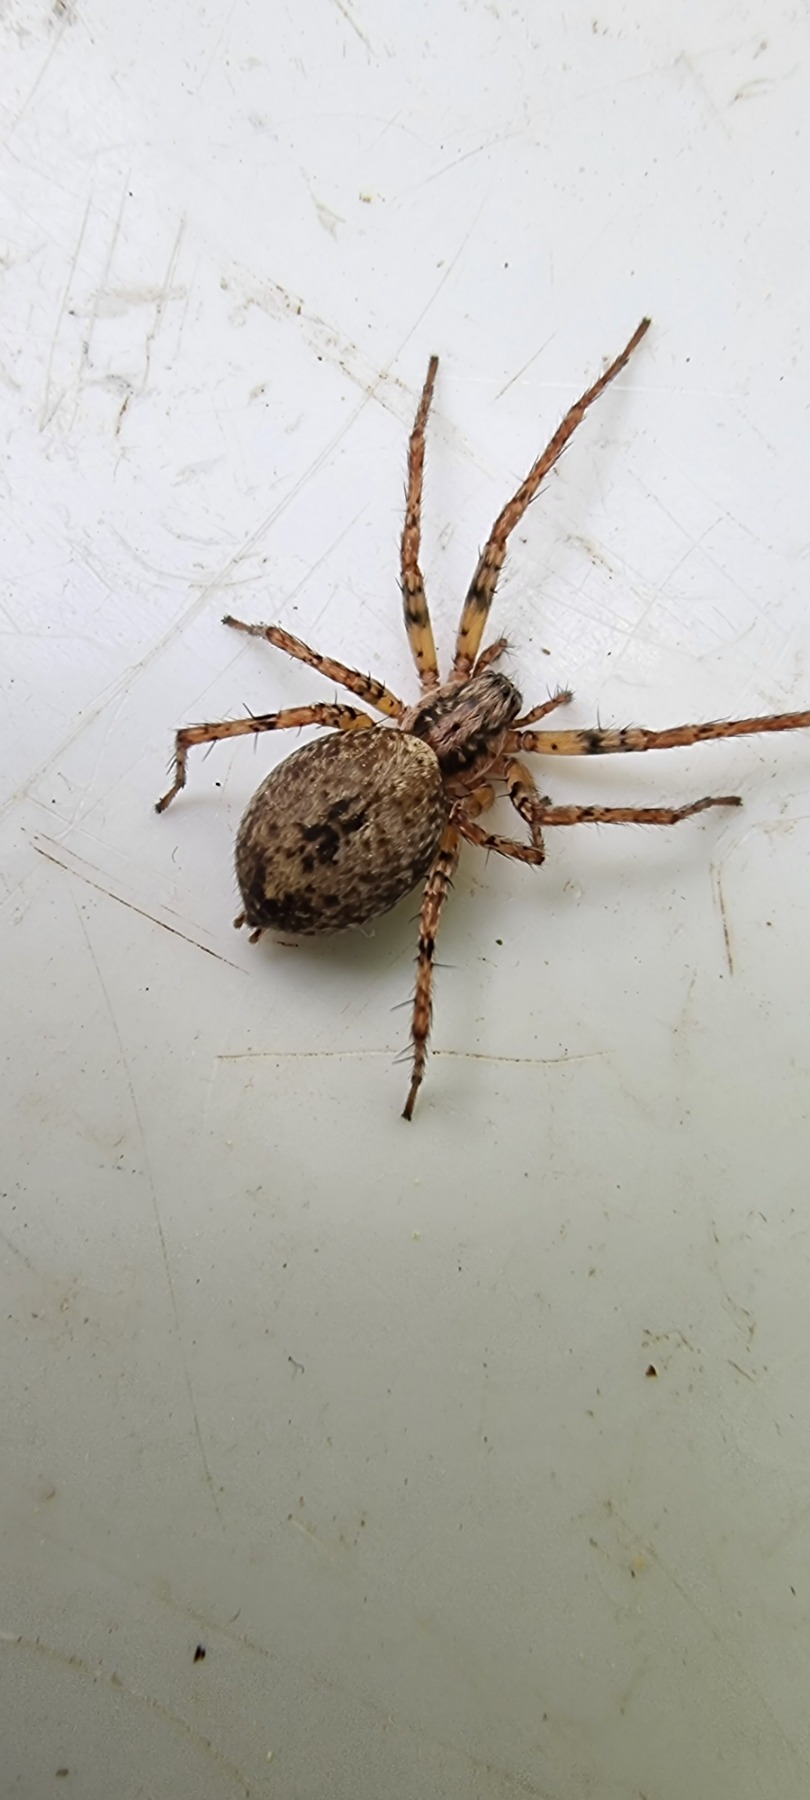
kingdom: Animalia
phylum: Arthropoda
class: Arachnida
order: Araneae
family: Anyphaenidae
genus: Anyphaena
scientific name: Anyphaena accentuata
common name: Summeedderkop
